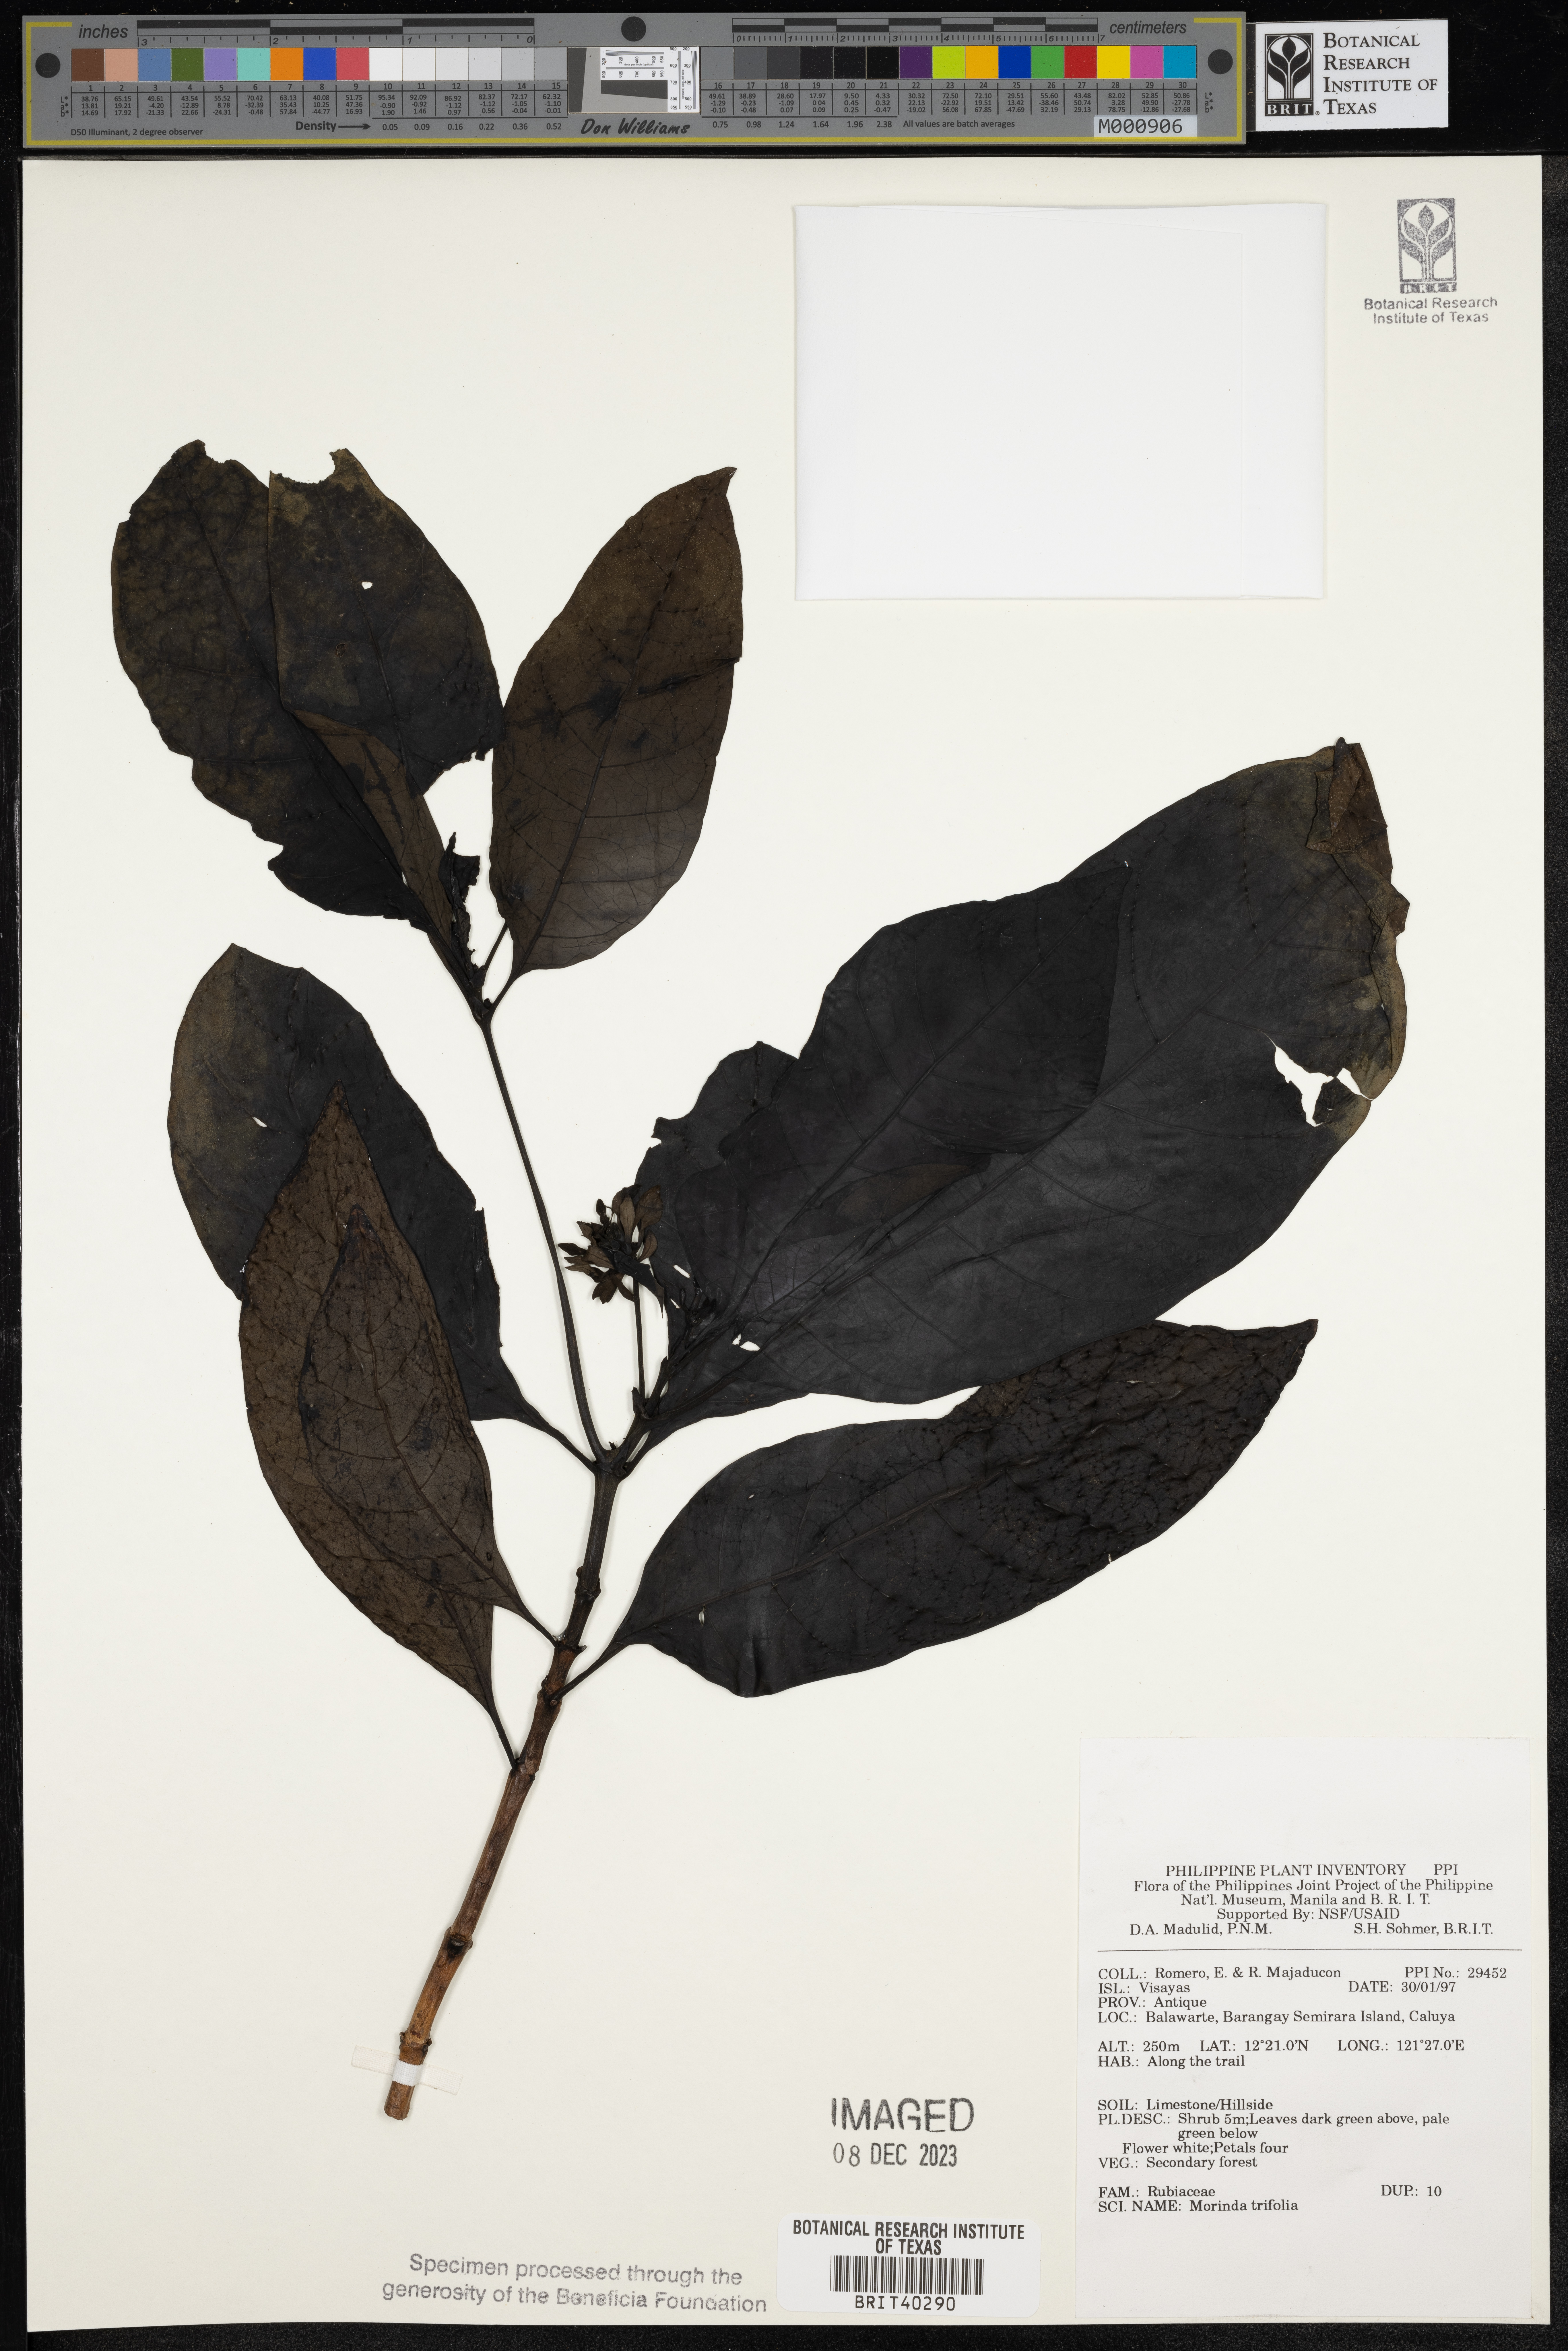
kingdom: Plantae
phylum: Tracheophyta
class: Magnoliopsida
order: Gentianales
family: Rubiaceae
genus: Morinda
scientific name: Morinda
